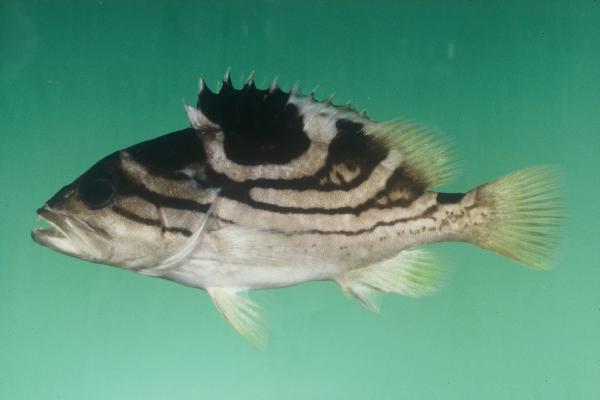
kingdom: Animalia
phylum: Chordata
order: Perciformes
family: Serranidae
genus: Epinephelus
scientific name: Epinephelus poecilonotus
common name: Dot-dash grouper
